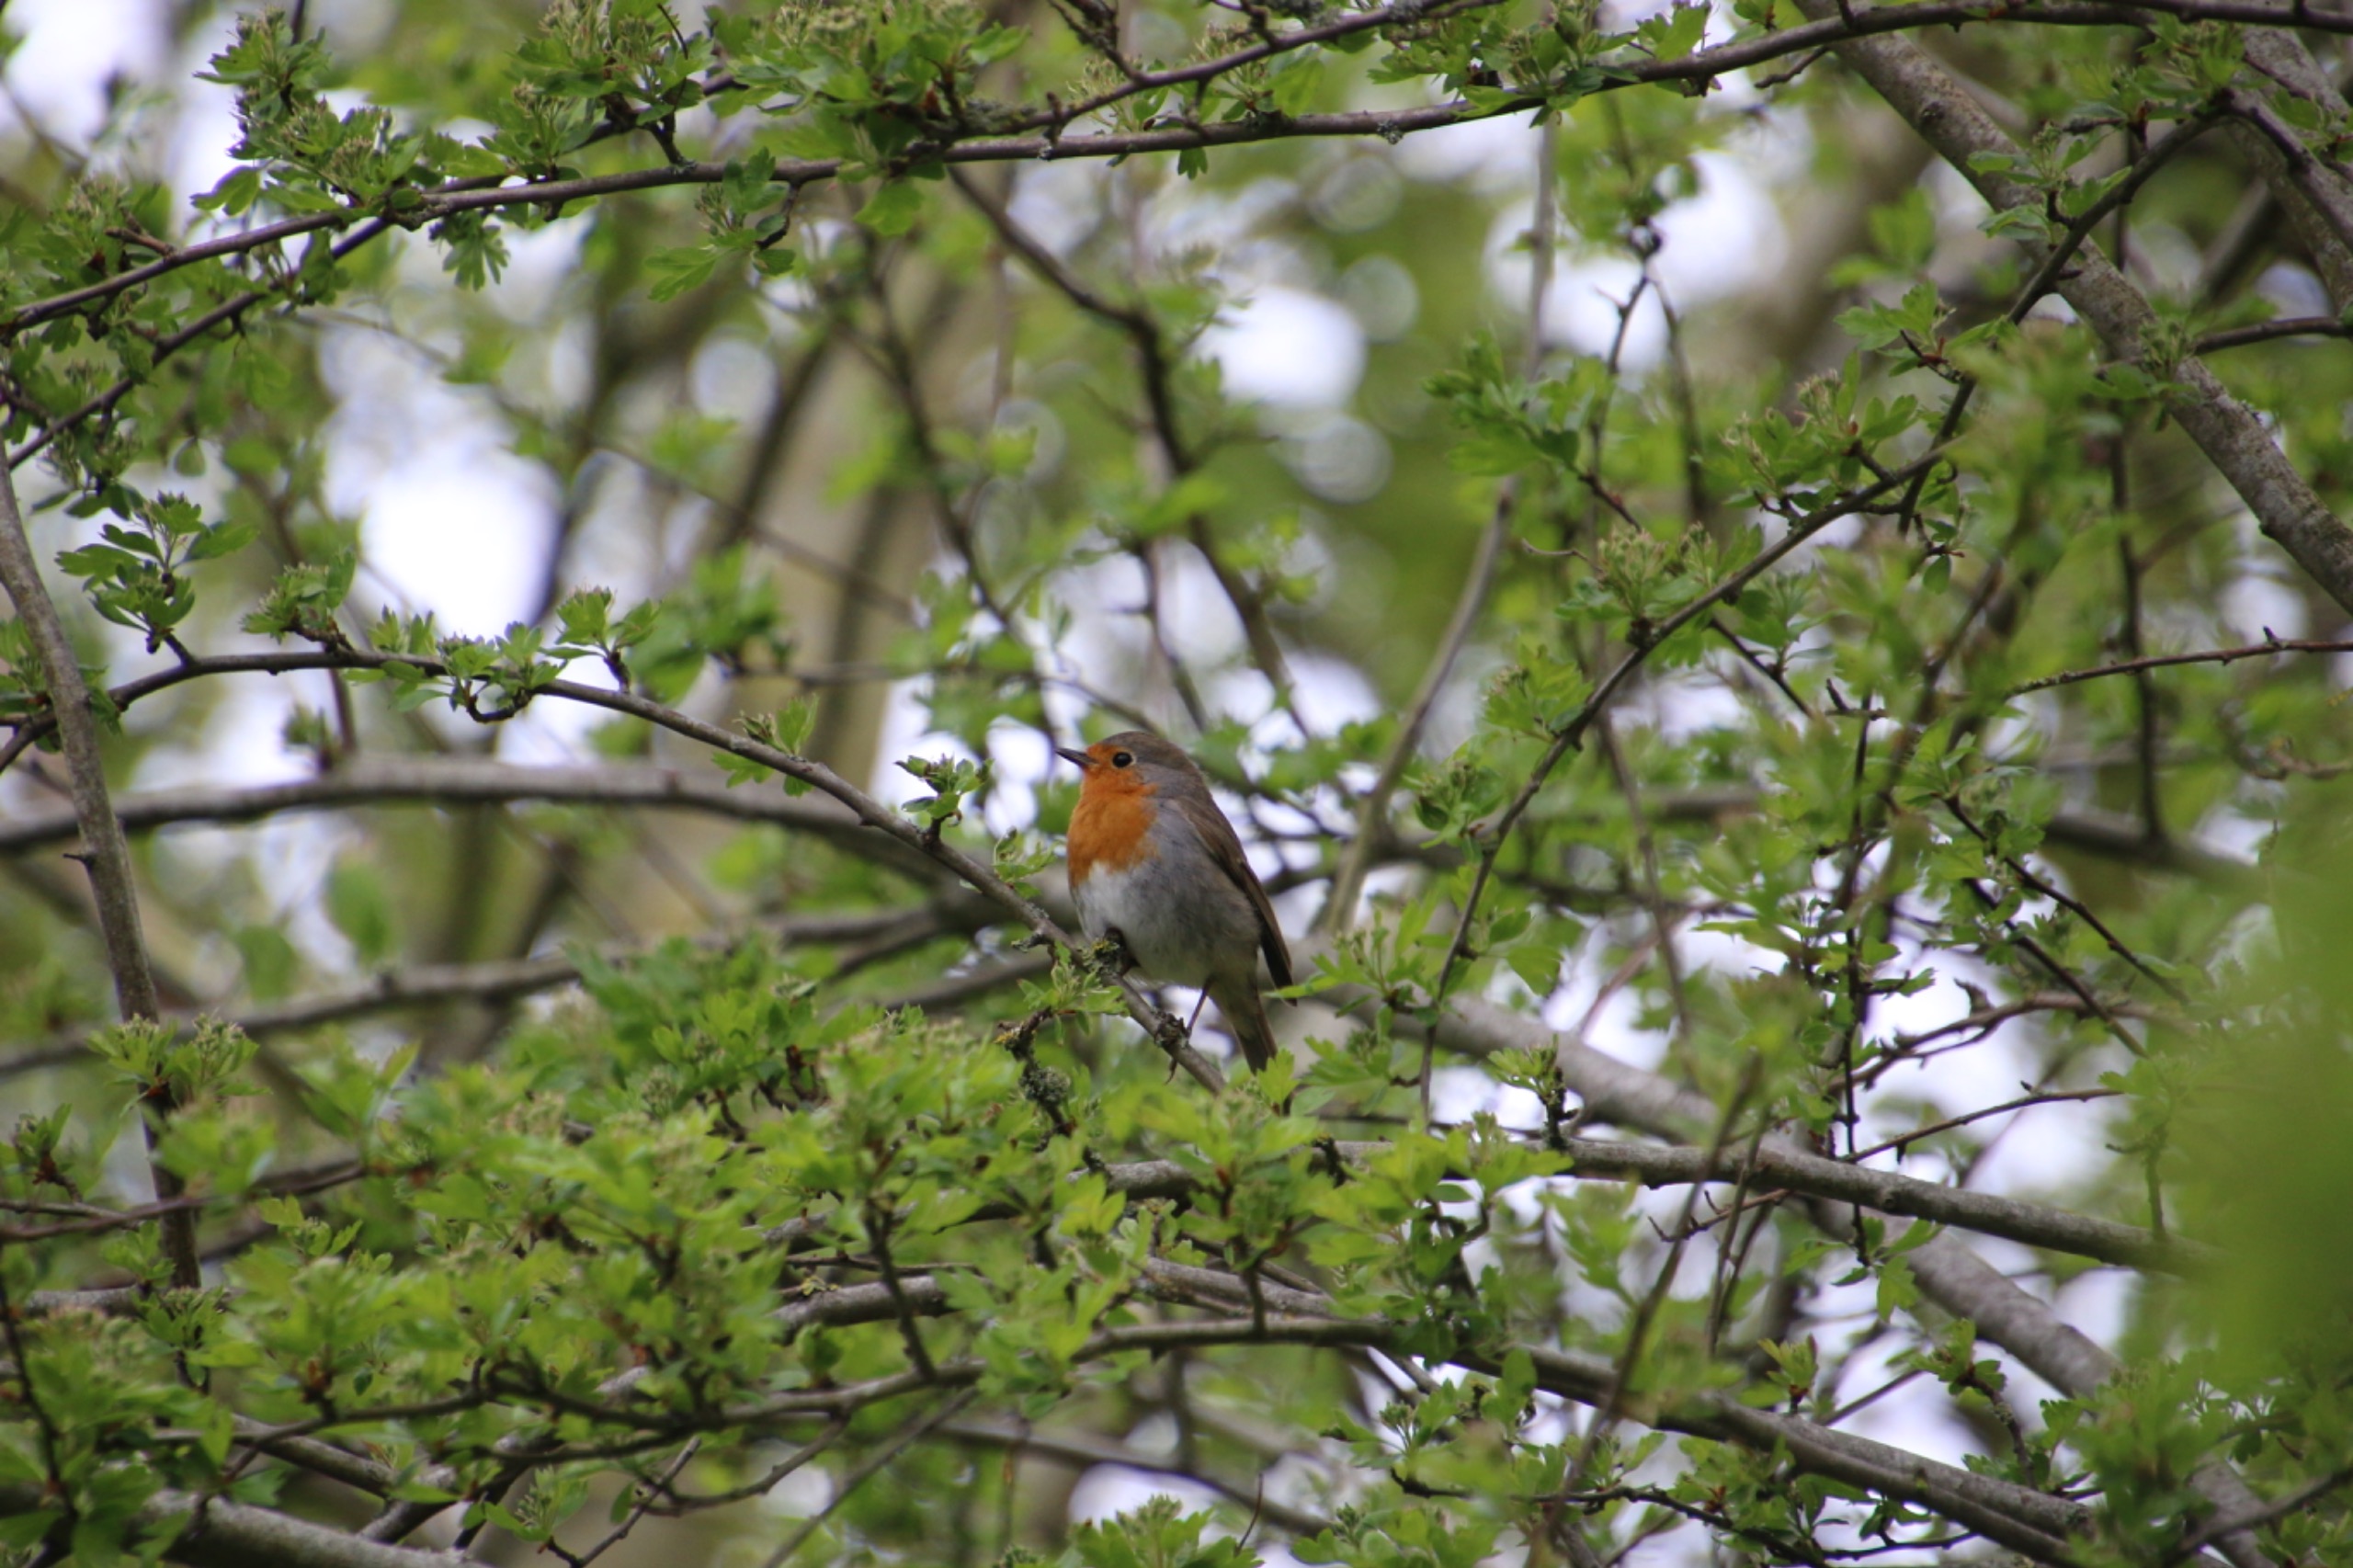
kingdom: Animalia
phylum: Chordata
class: Aves
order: Passeriformes
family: Muscicapidae
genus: Erithacus
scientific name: Erithacus rubecula
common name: Rødhals/rødkælk
